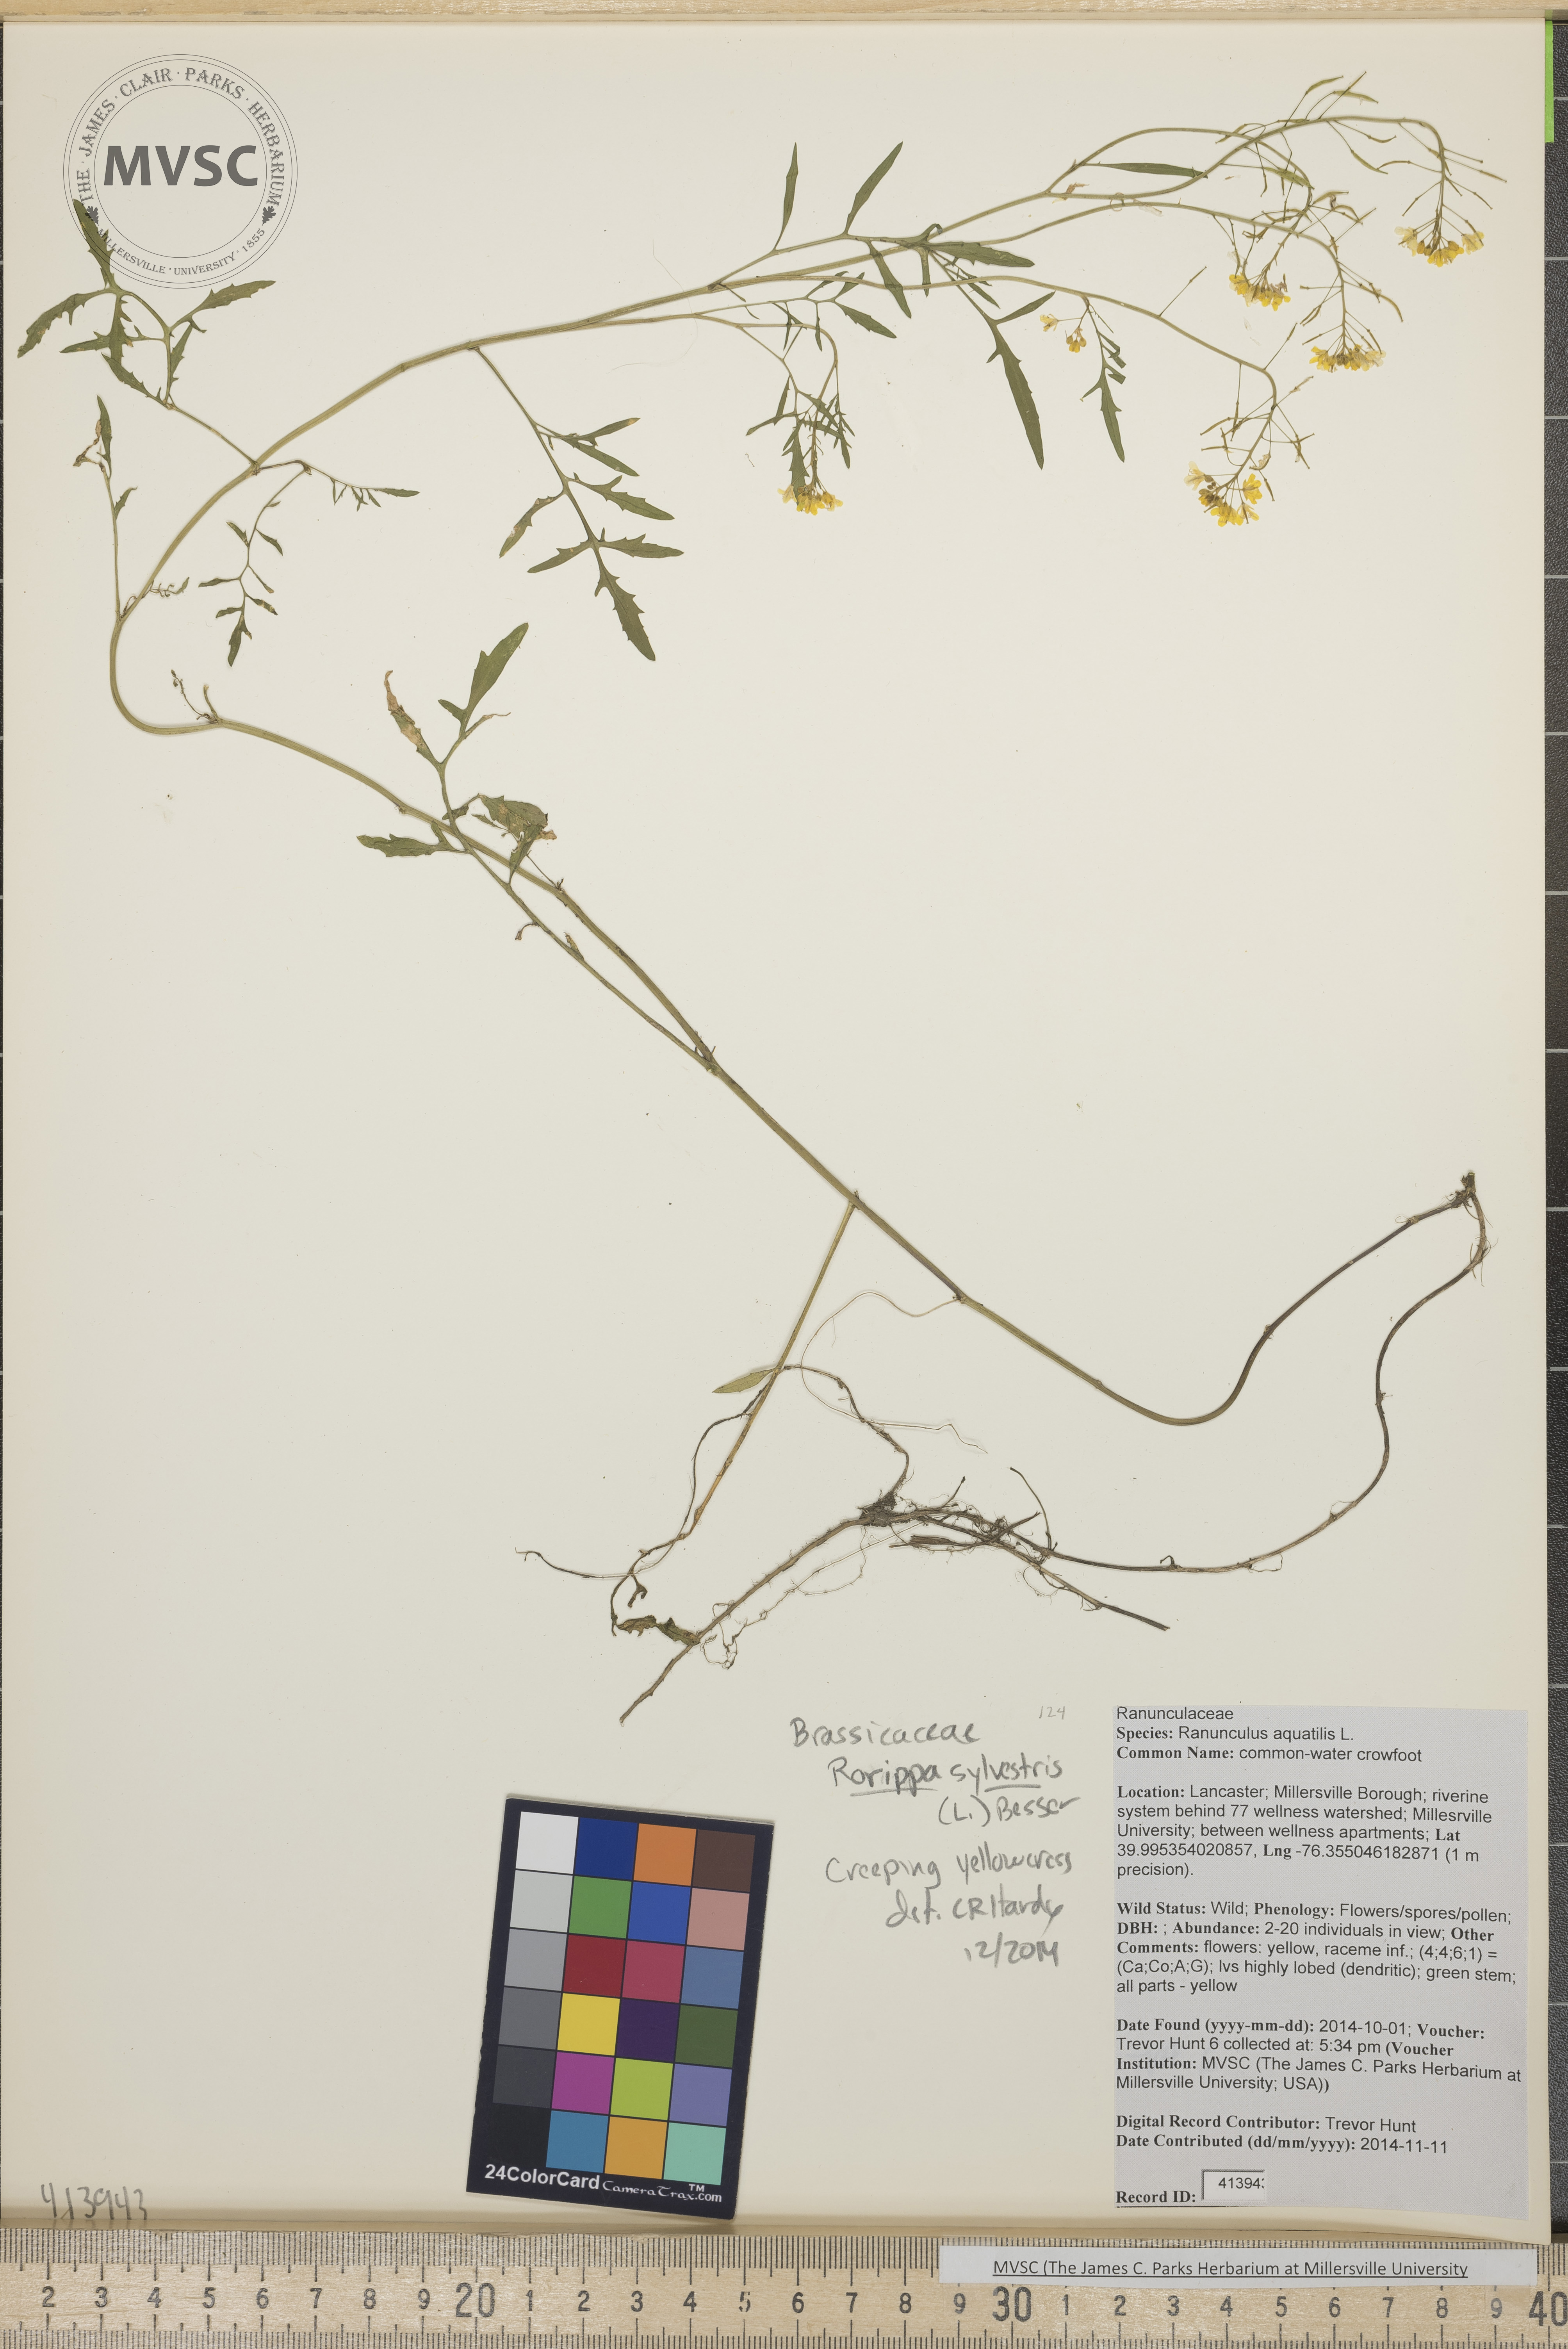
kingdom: Plantae
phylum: Tracheophyta
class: Magnoliopsida
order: Brassicales
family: Brassicaceae
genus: Rorippa
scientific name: Rorippa sylvestris
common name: creeping yellowcress
